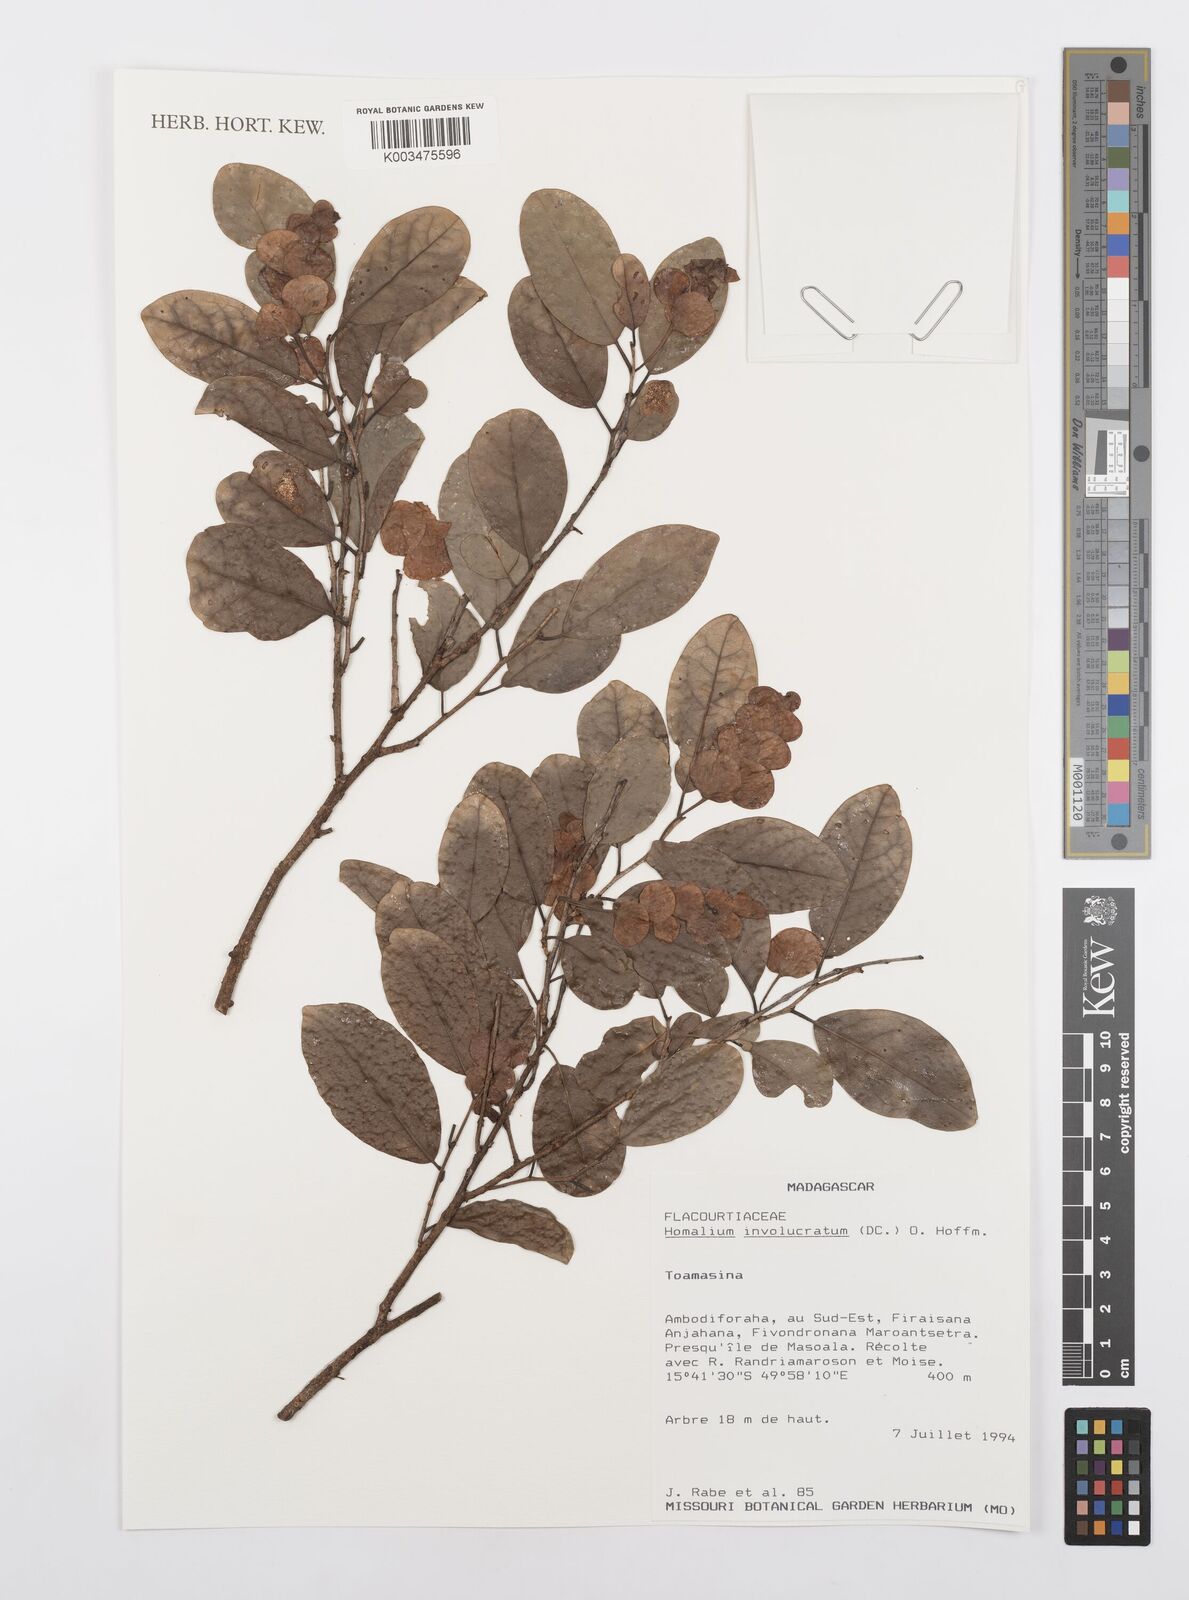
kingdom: Plantae
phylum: Tracheophyta
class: Magnoliopsida
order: Malpighiales
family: Salicaceae
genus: Homalium
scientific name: Homalium involucratum
